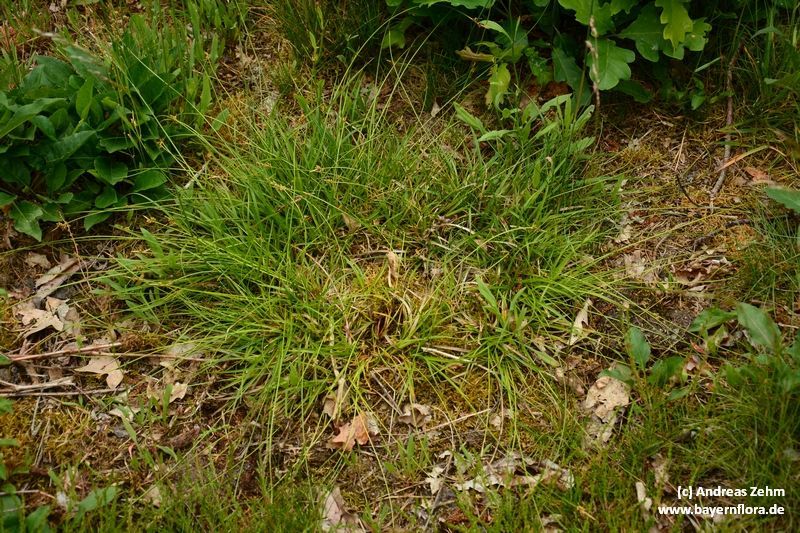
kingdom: Plantae
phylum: Tracheophyta
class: Liliopsida
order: Poales
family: Cyperaceae
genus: Carex
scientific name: Carex pilulifera
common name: Pill sedge
